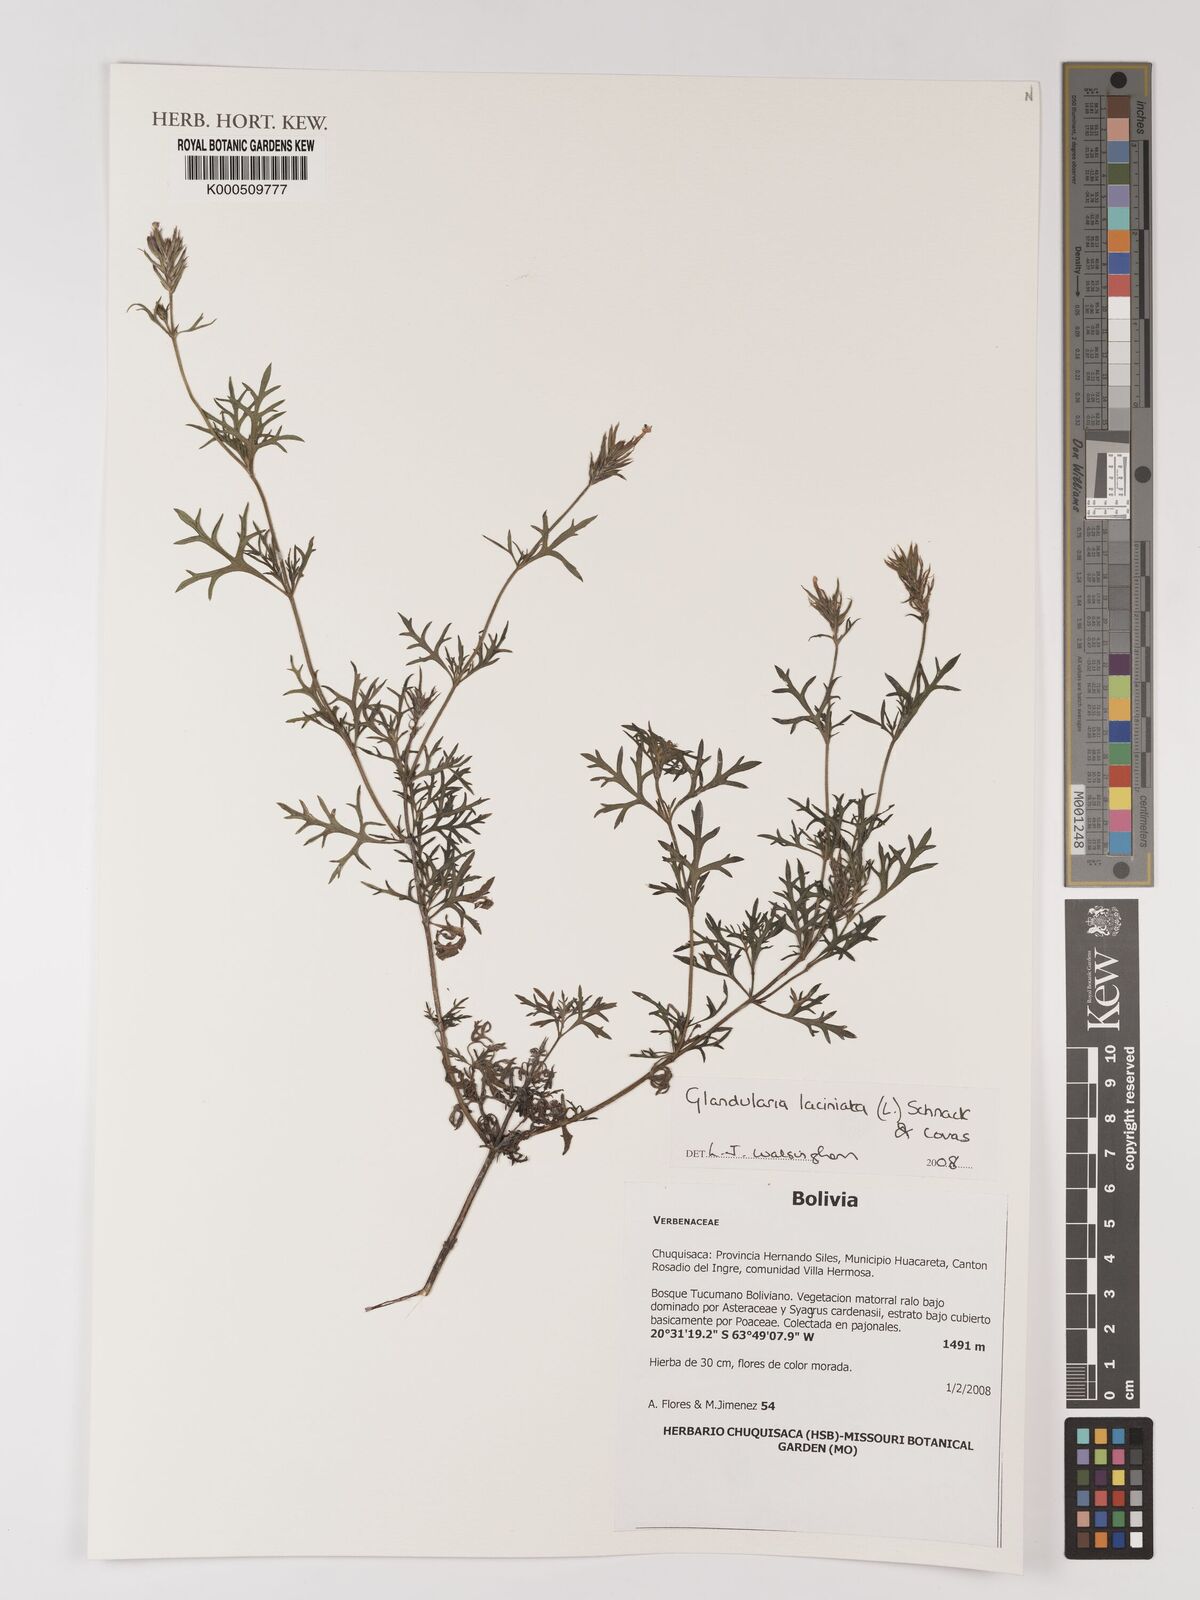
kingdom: Plantae
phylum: Tracheophyta
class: Magnoliopsida
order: Lamiales
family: Verbenaceae
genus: Verbena
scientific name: Verbena laciniata
